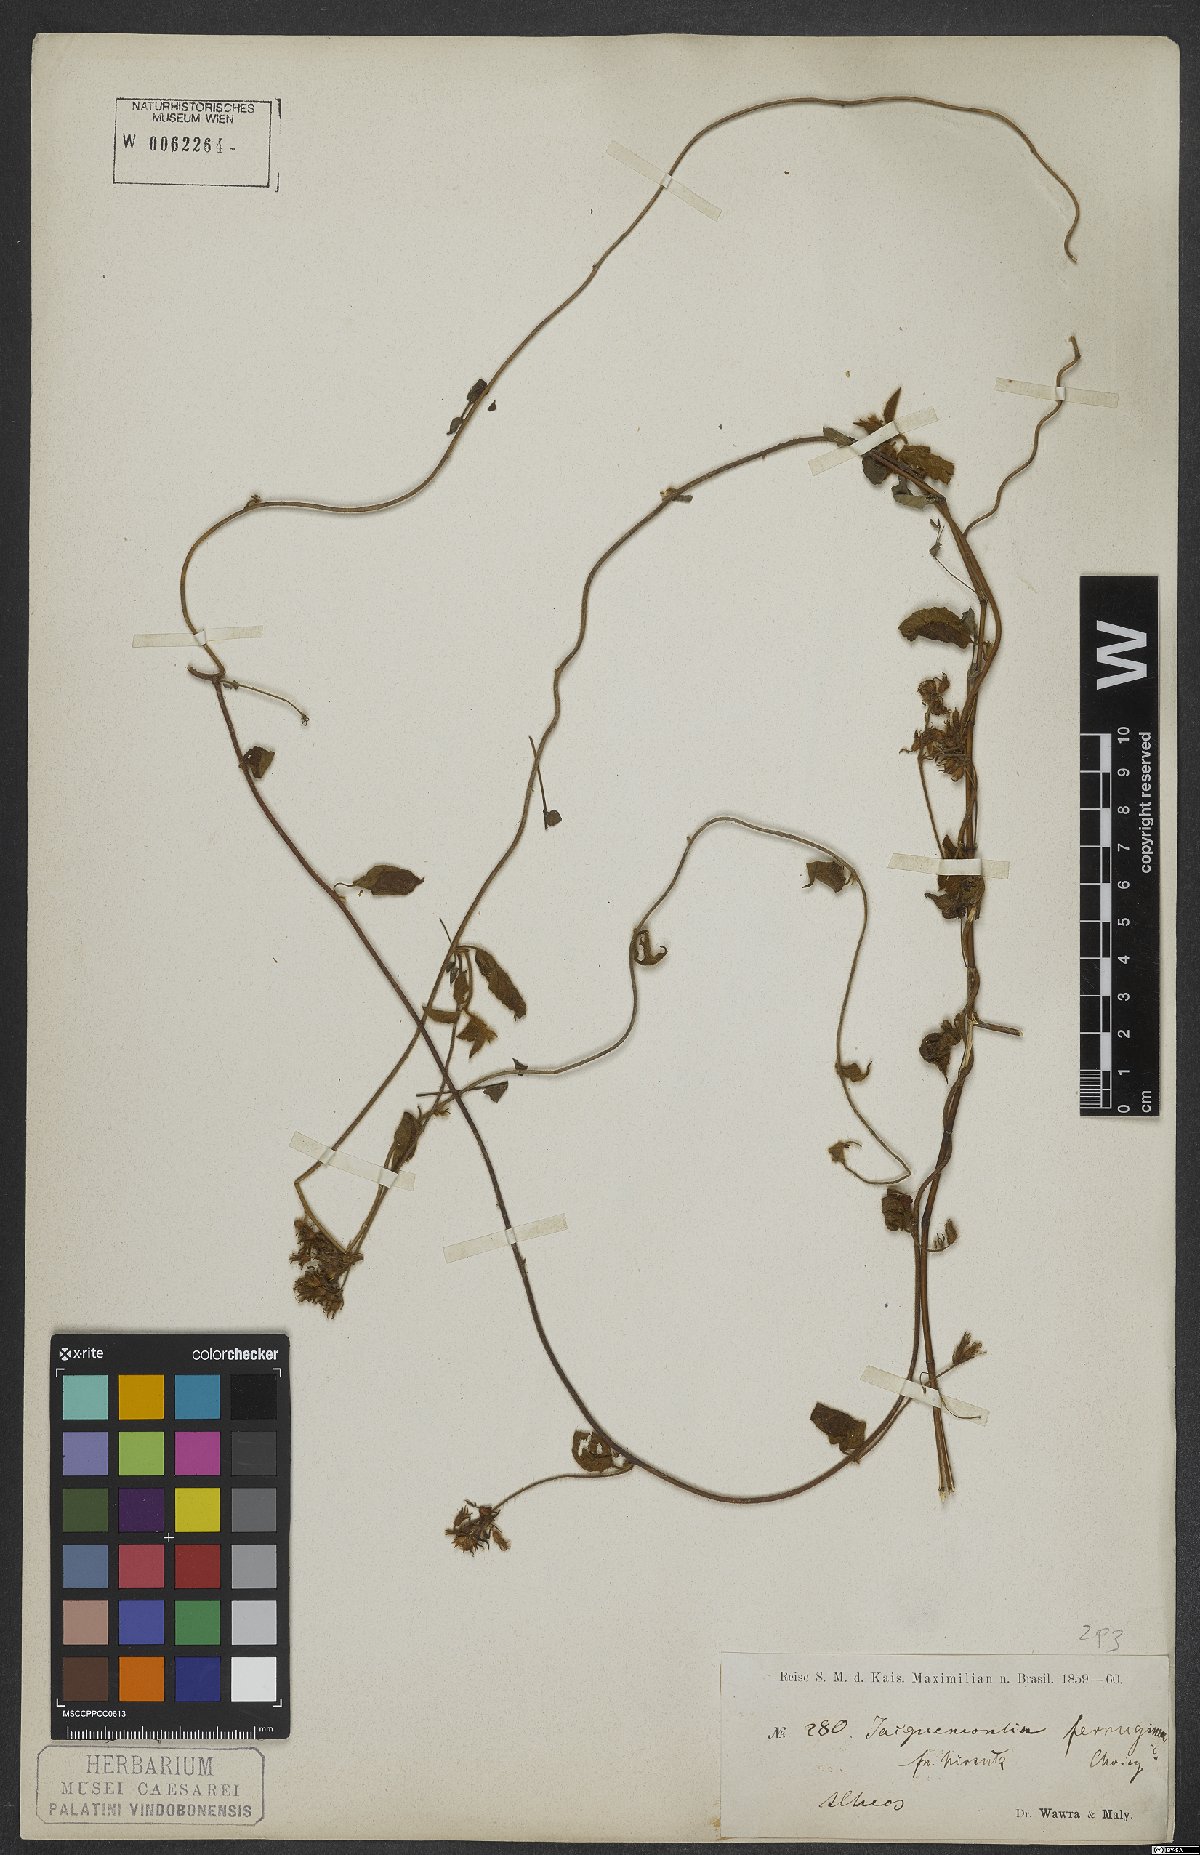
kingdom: Plantae
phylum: Tracheophyta
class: Magnoliopsida
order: Solanales
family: Convolvulaceae
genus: Jacquemontia
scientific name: Jacquemontia sphaerostigma
